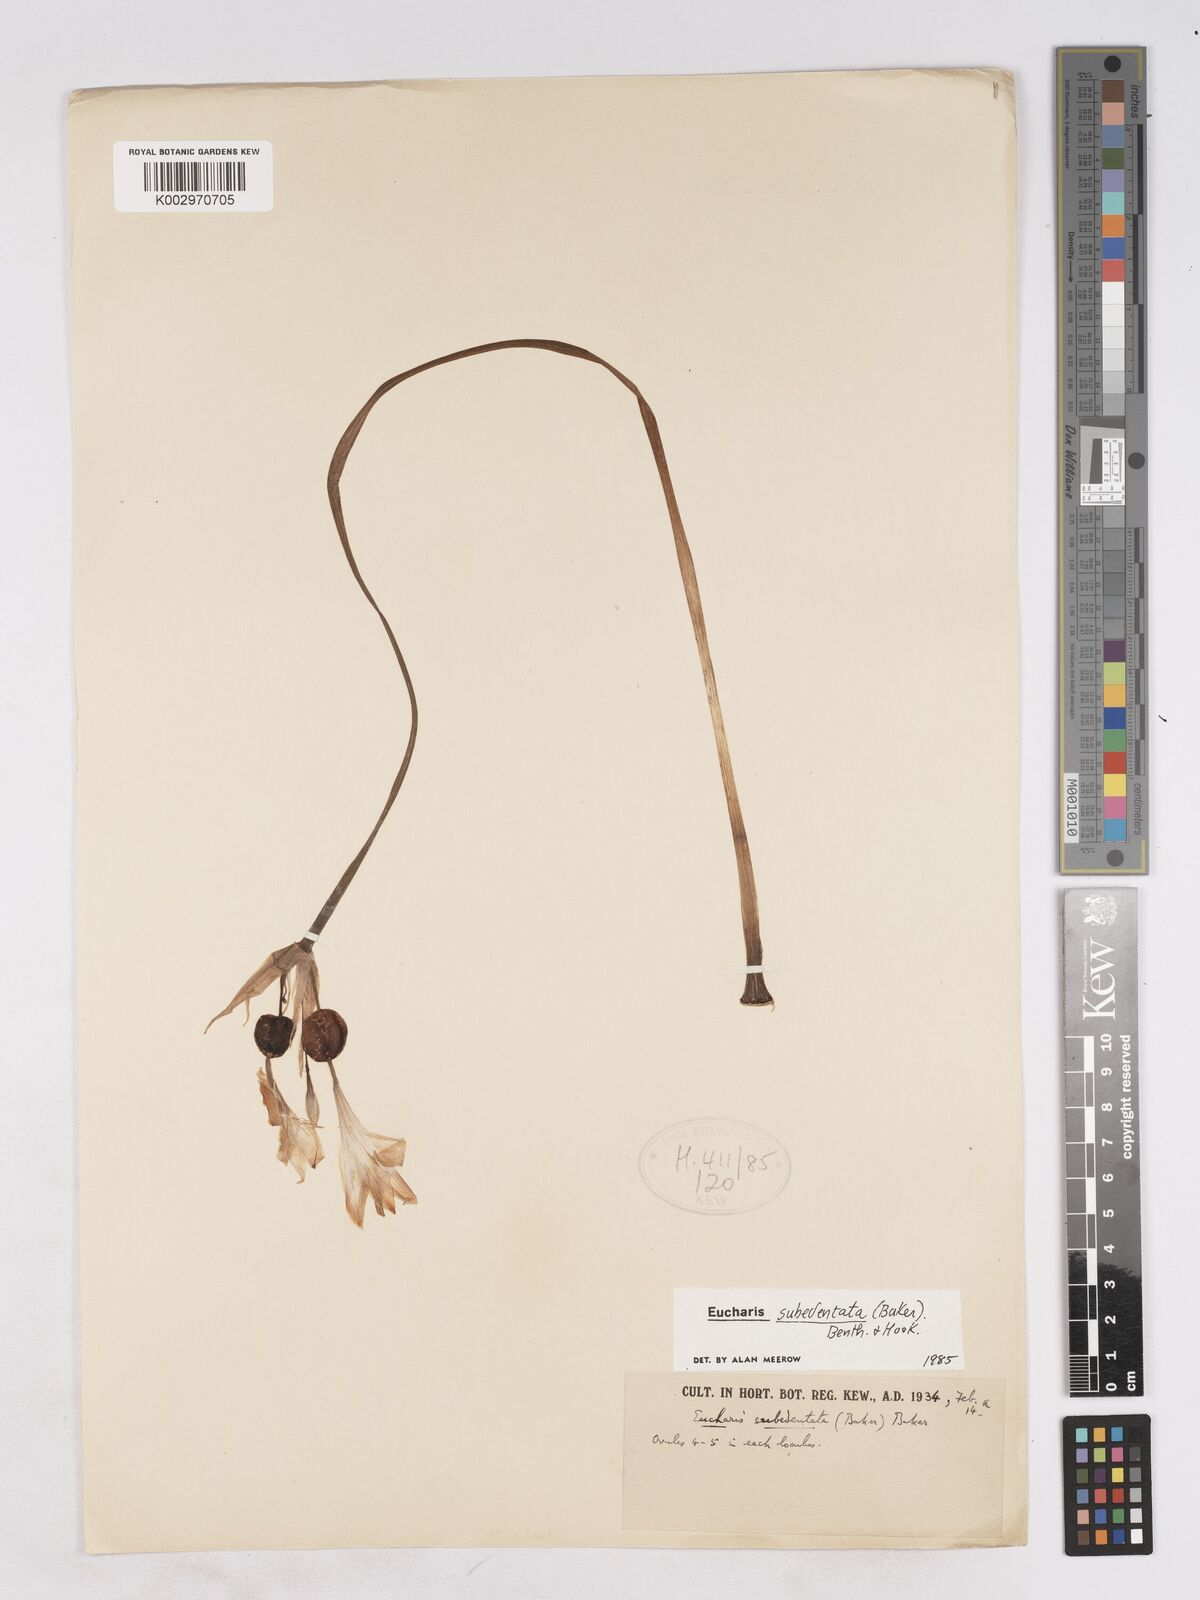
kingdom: Plantae
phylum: Tracheophyta
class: Liliopsida
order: Asparagales
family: Amaryllidaceae
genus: Urceolina
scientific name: Urceolina subedentata
